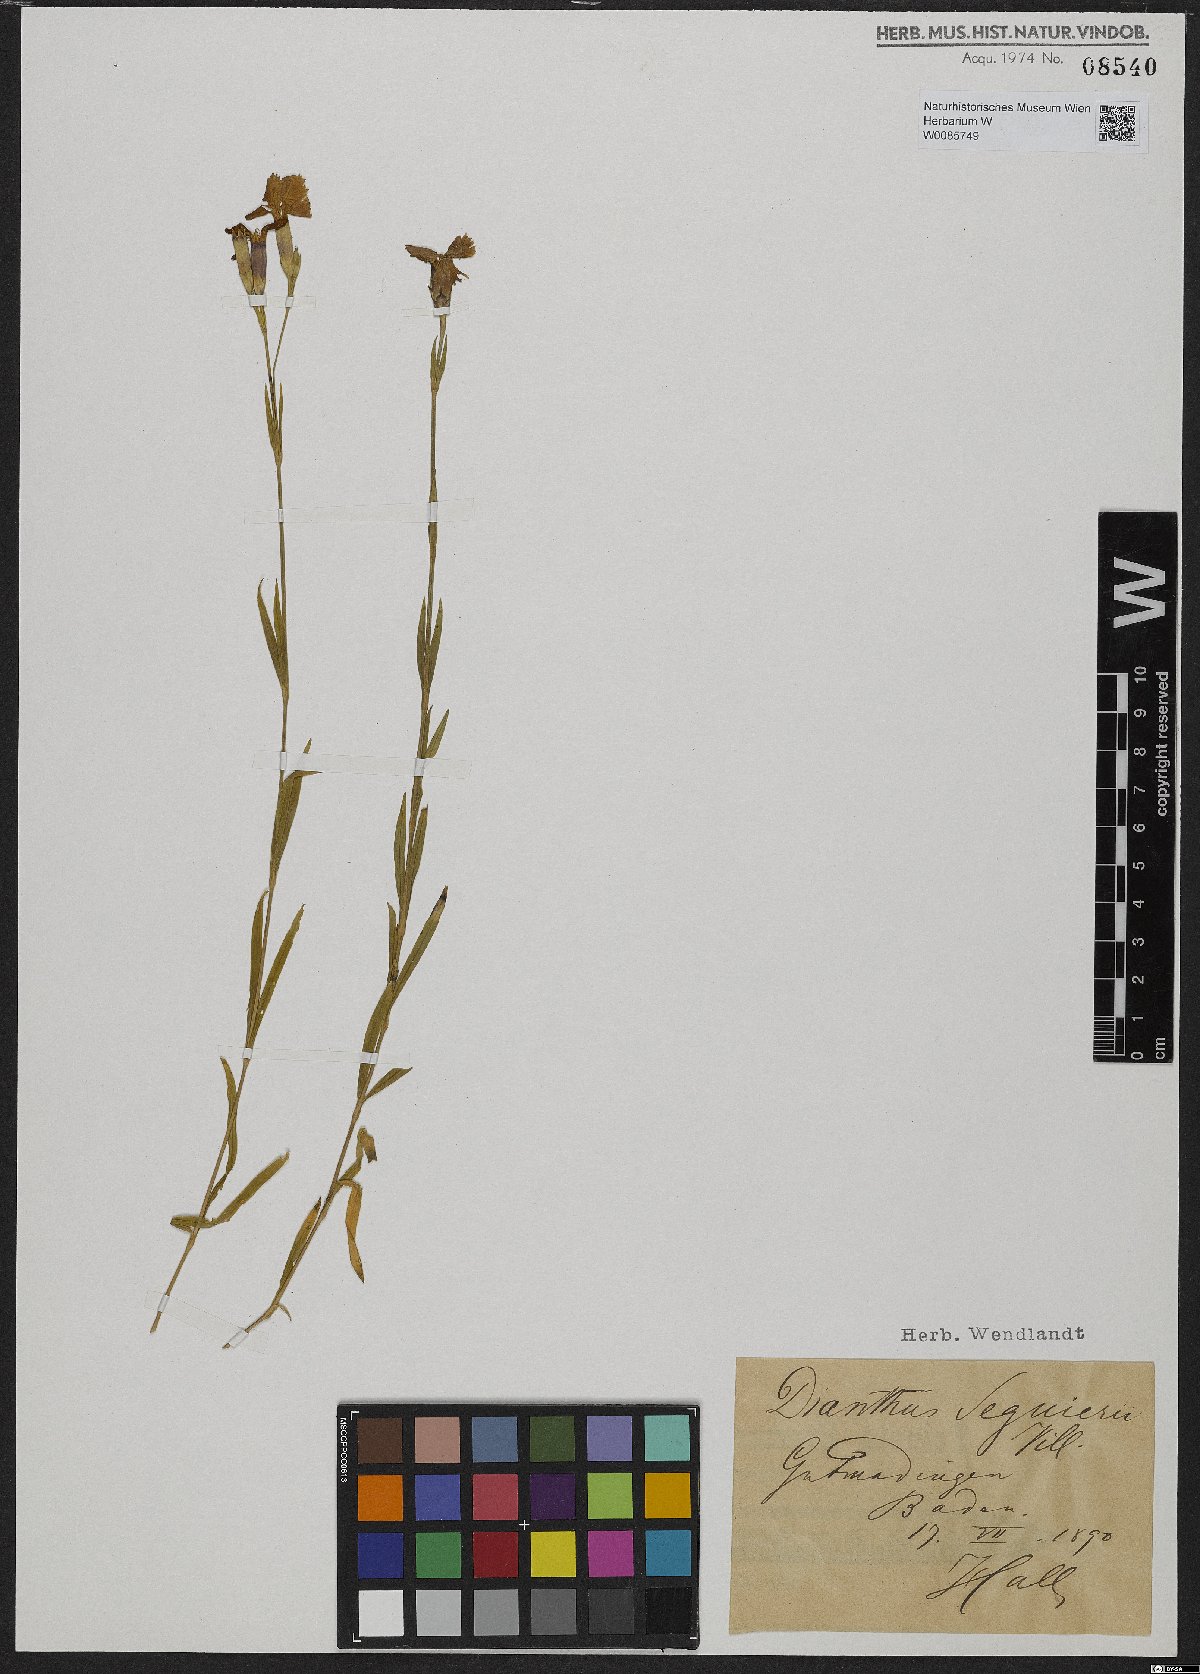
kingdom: Plantae
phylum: Tracheophyta
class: Magnoliopsida
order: Caryophyllales
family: Caryophyllaceae
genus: Dianthus
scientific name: Dianthus seguieri
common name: Ragged pink
